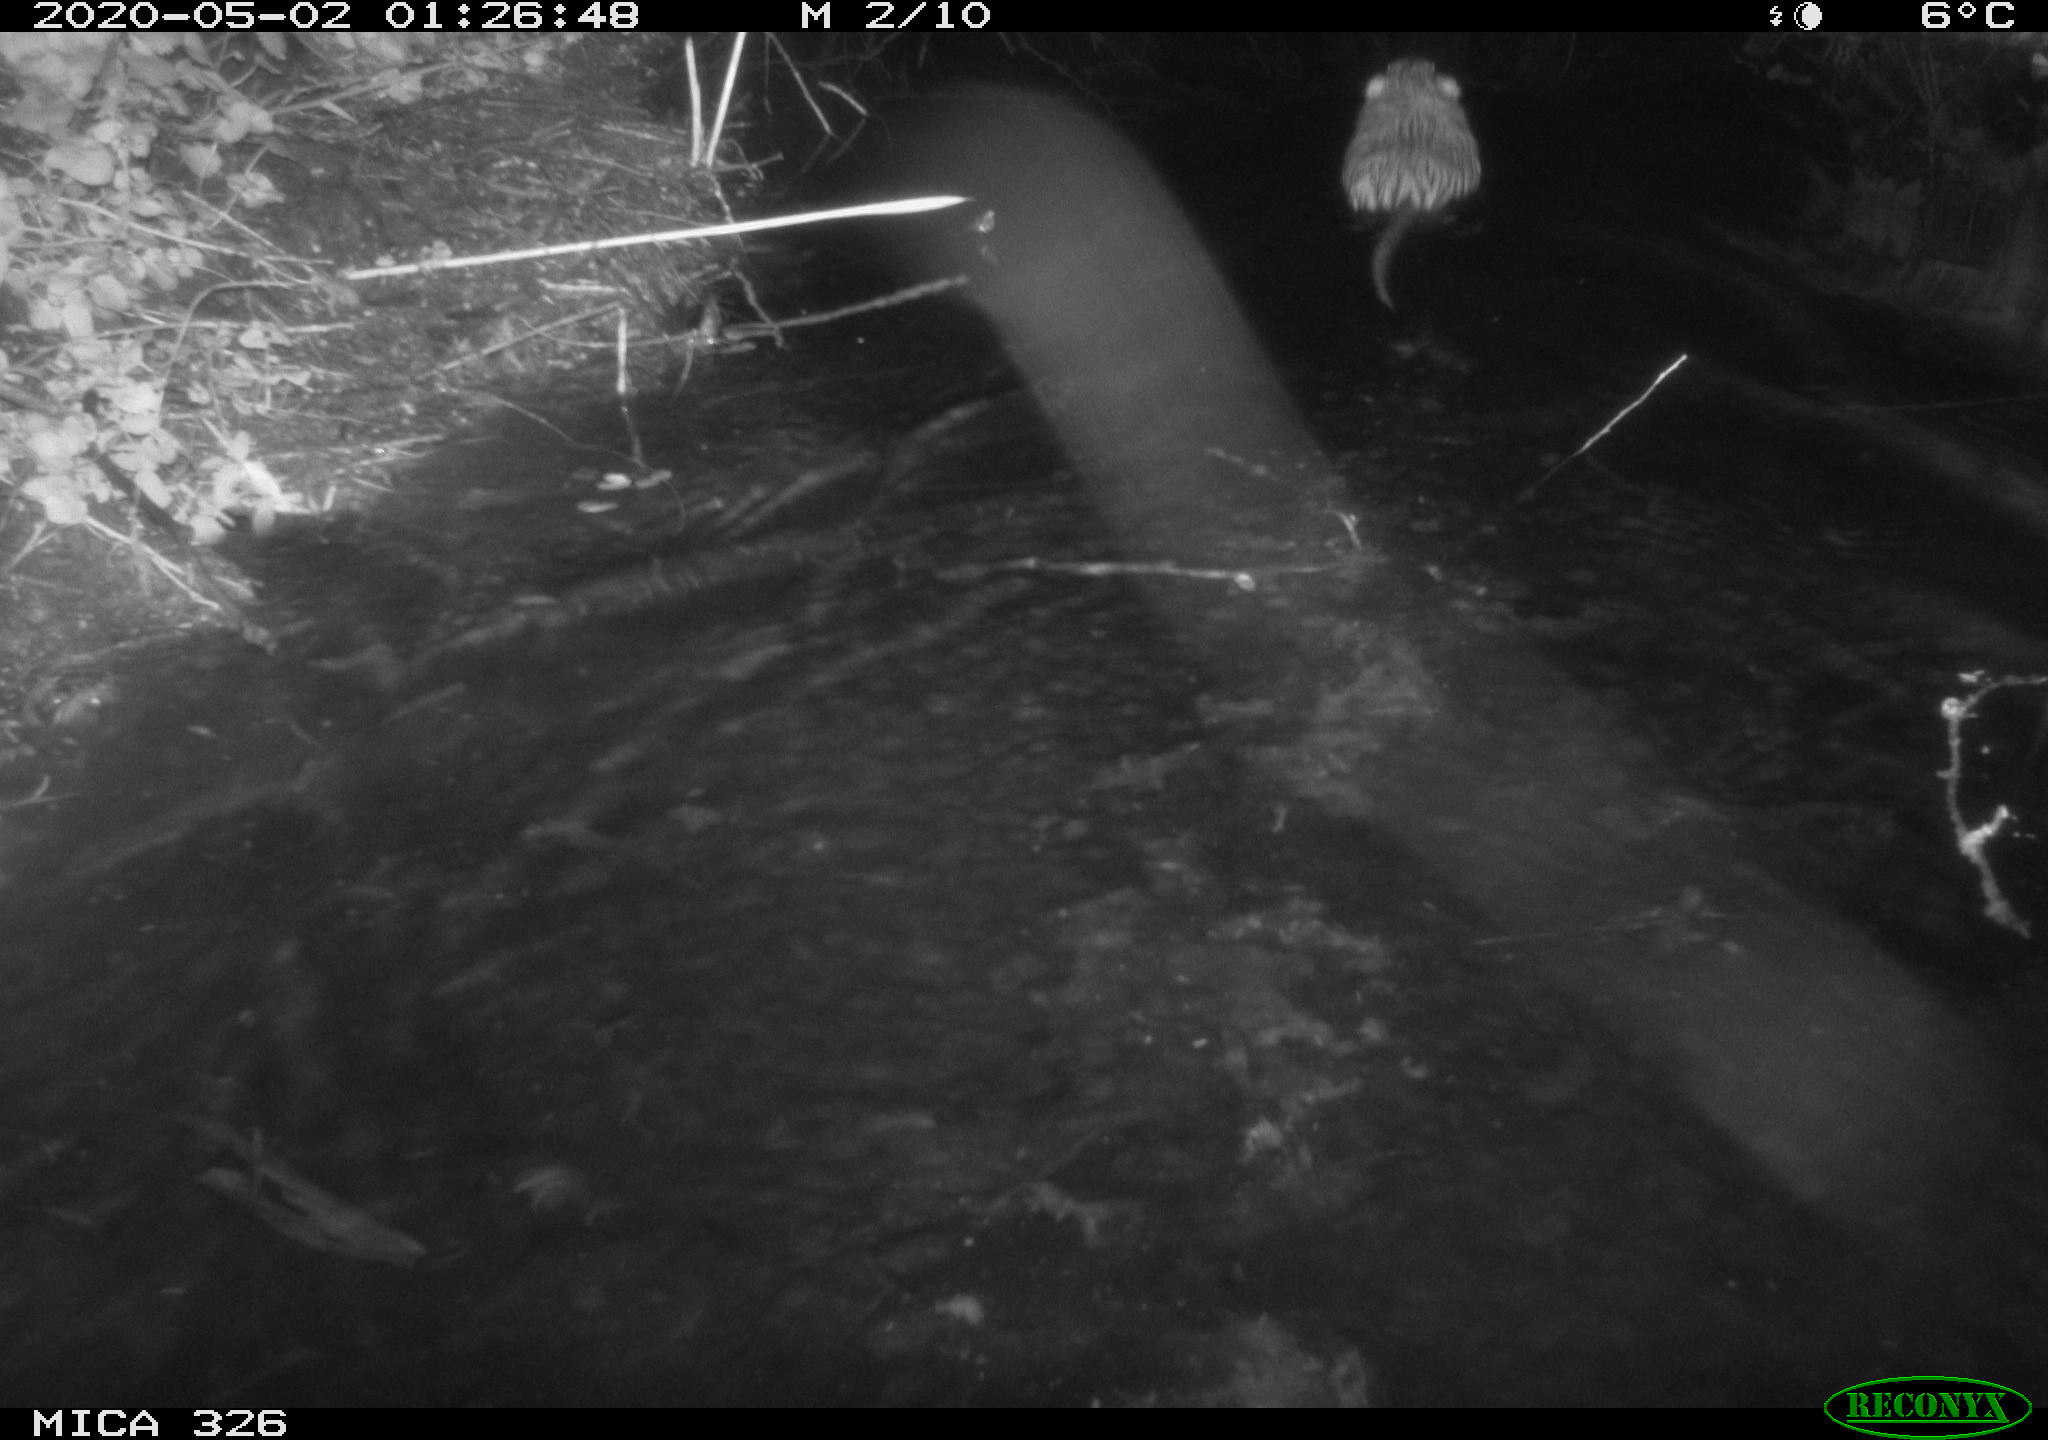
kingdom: Animalia
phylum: Chordata
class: Mammalia
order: Rodentia
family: Myocastoridae
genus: Myocastor
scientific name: Myocastor coypus
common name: Coypu
